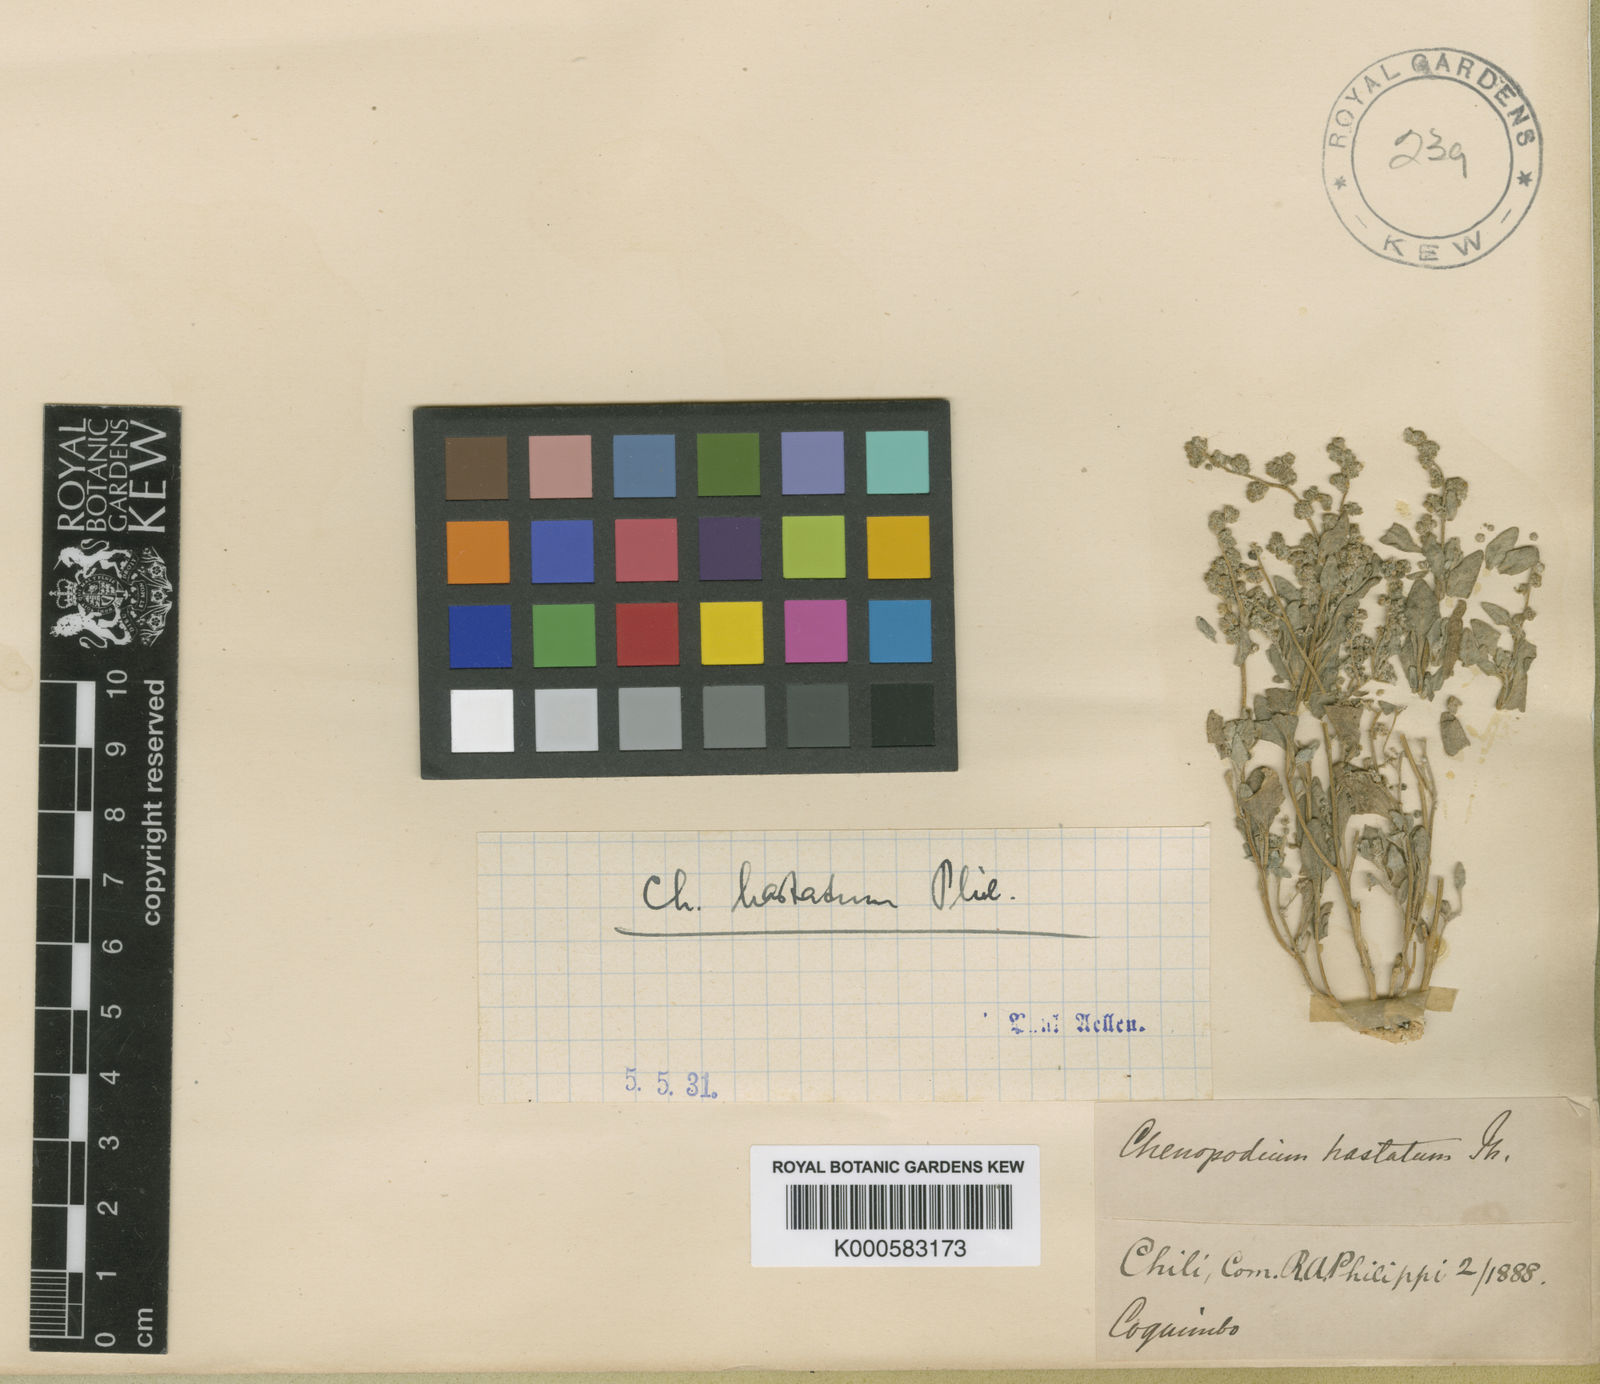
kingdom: Plantae
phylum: Tracheophyta
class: Magnoliopsida
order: Caryophyllales
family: Amaranthaceae
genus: Chenopodium
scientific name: Chenopodium petiolare
